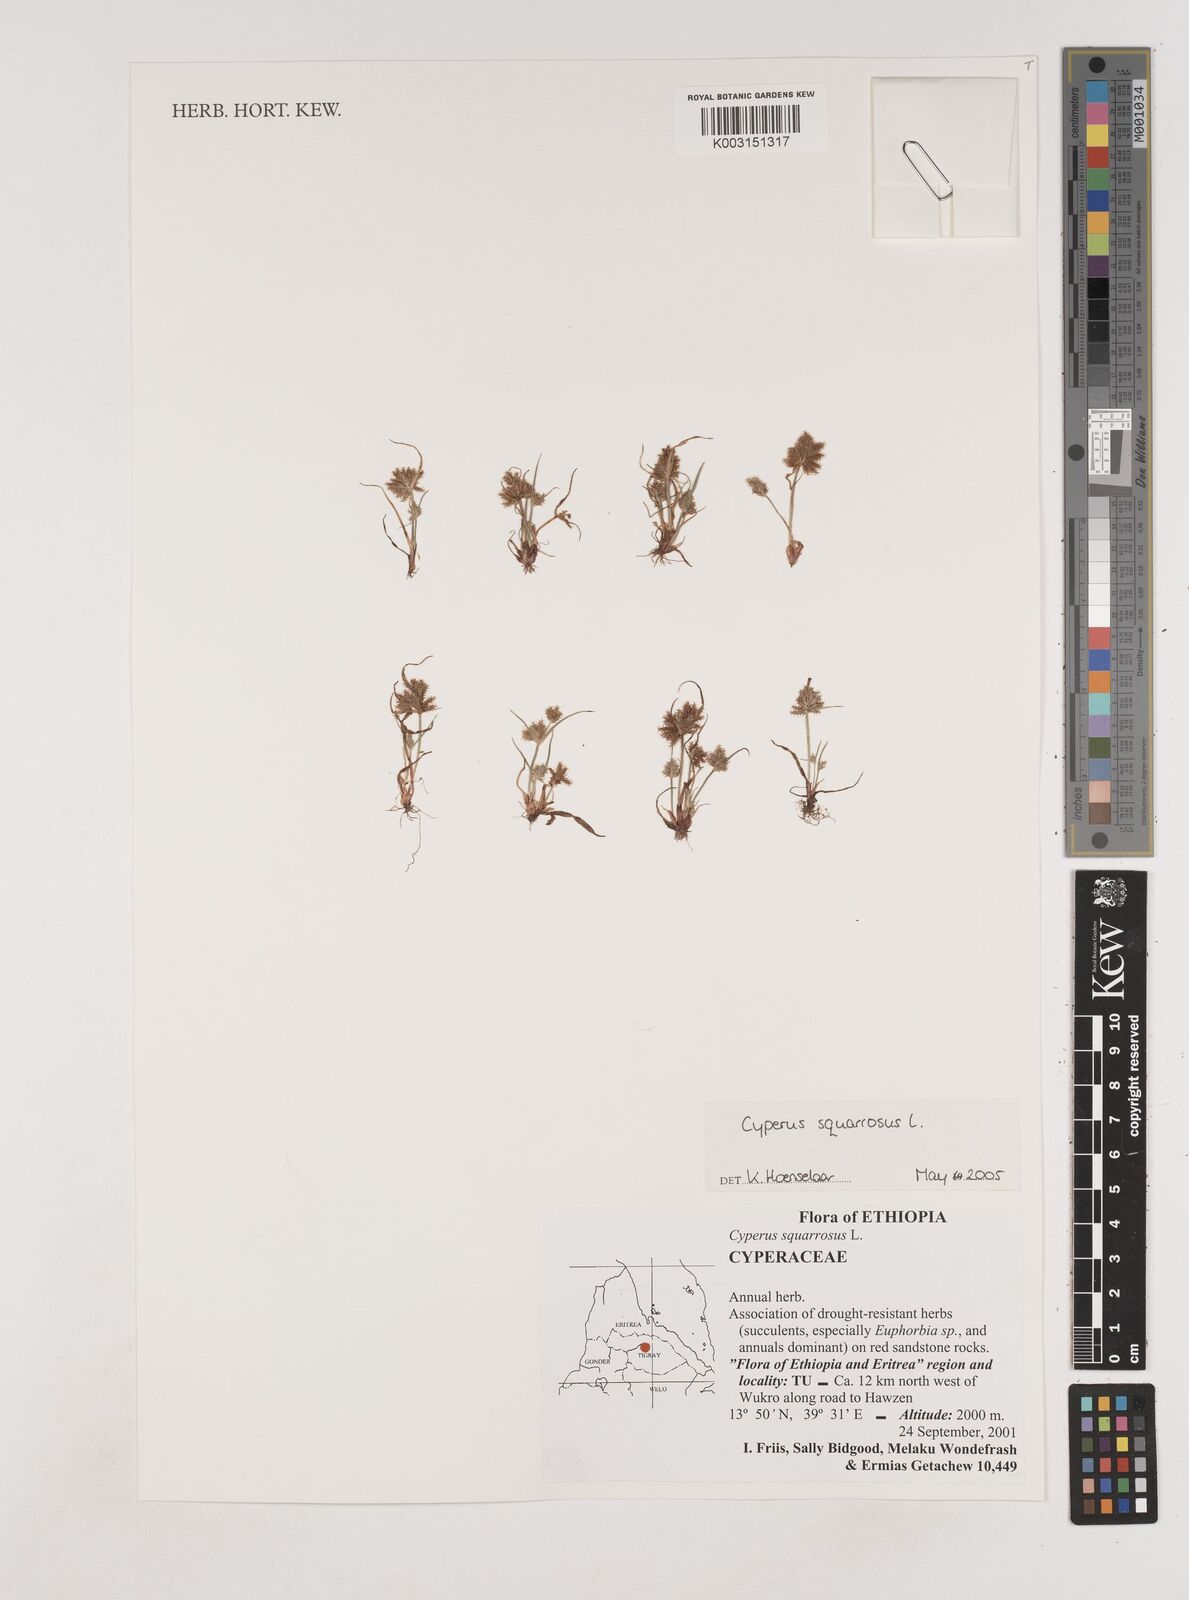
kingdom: Plantae
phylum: Tracheophyta
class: Liliopsida
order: Poales
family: Cyperaceae
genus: Cyperus
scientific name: Cyperus squarrosus
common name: Awned cyperus
